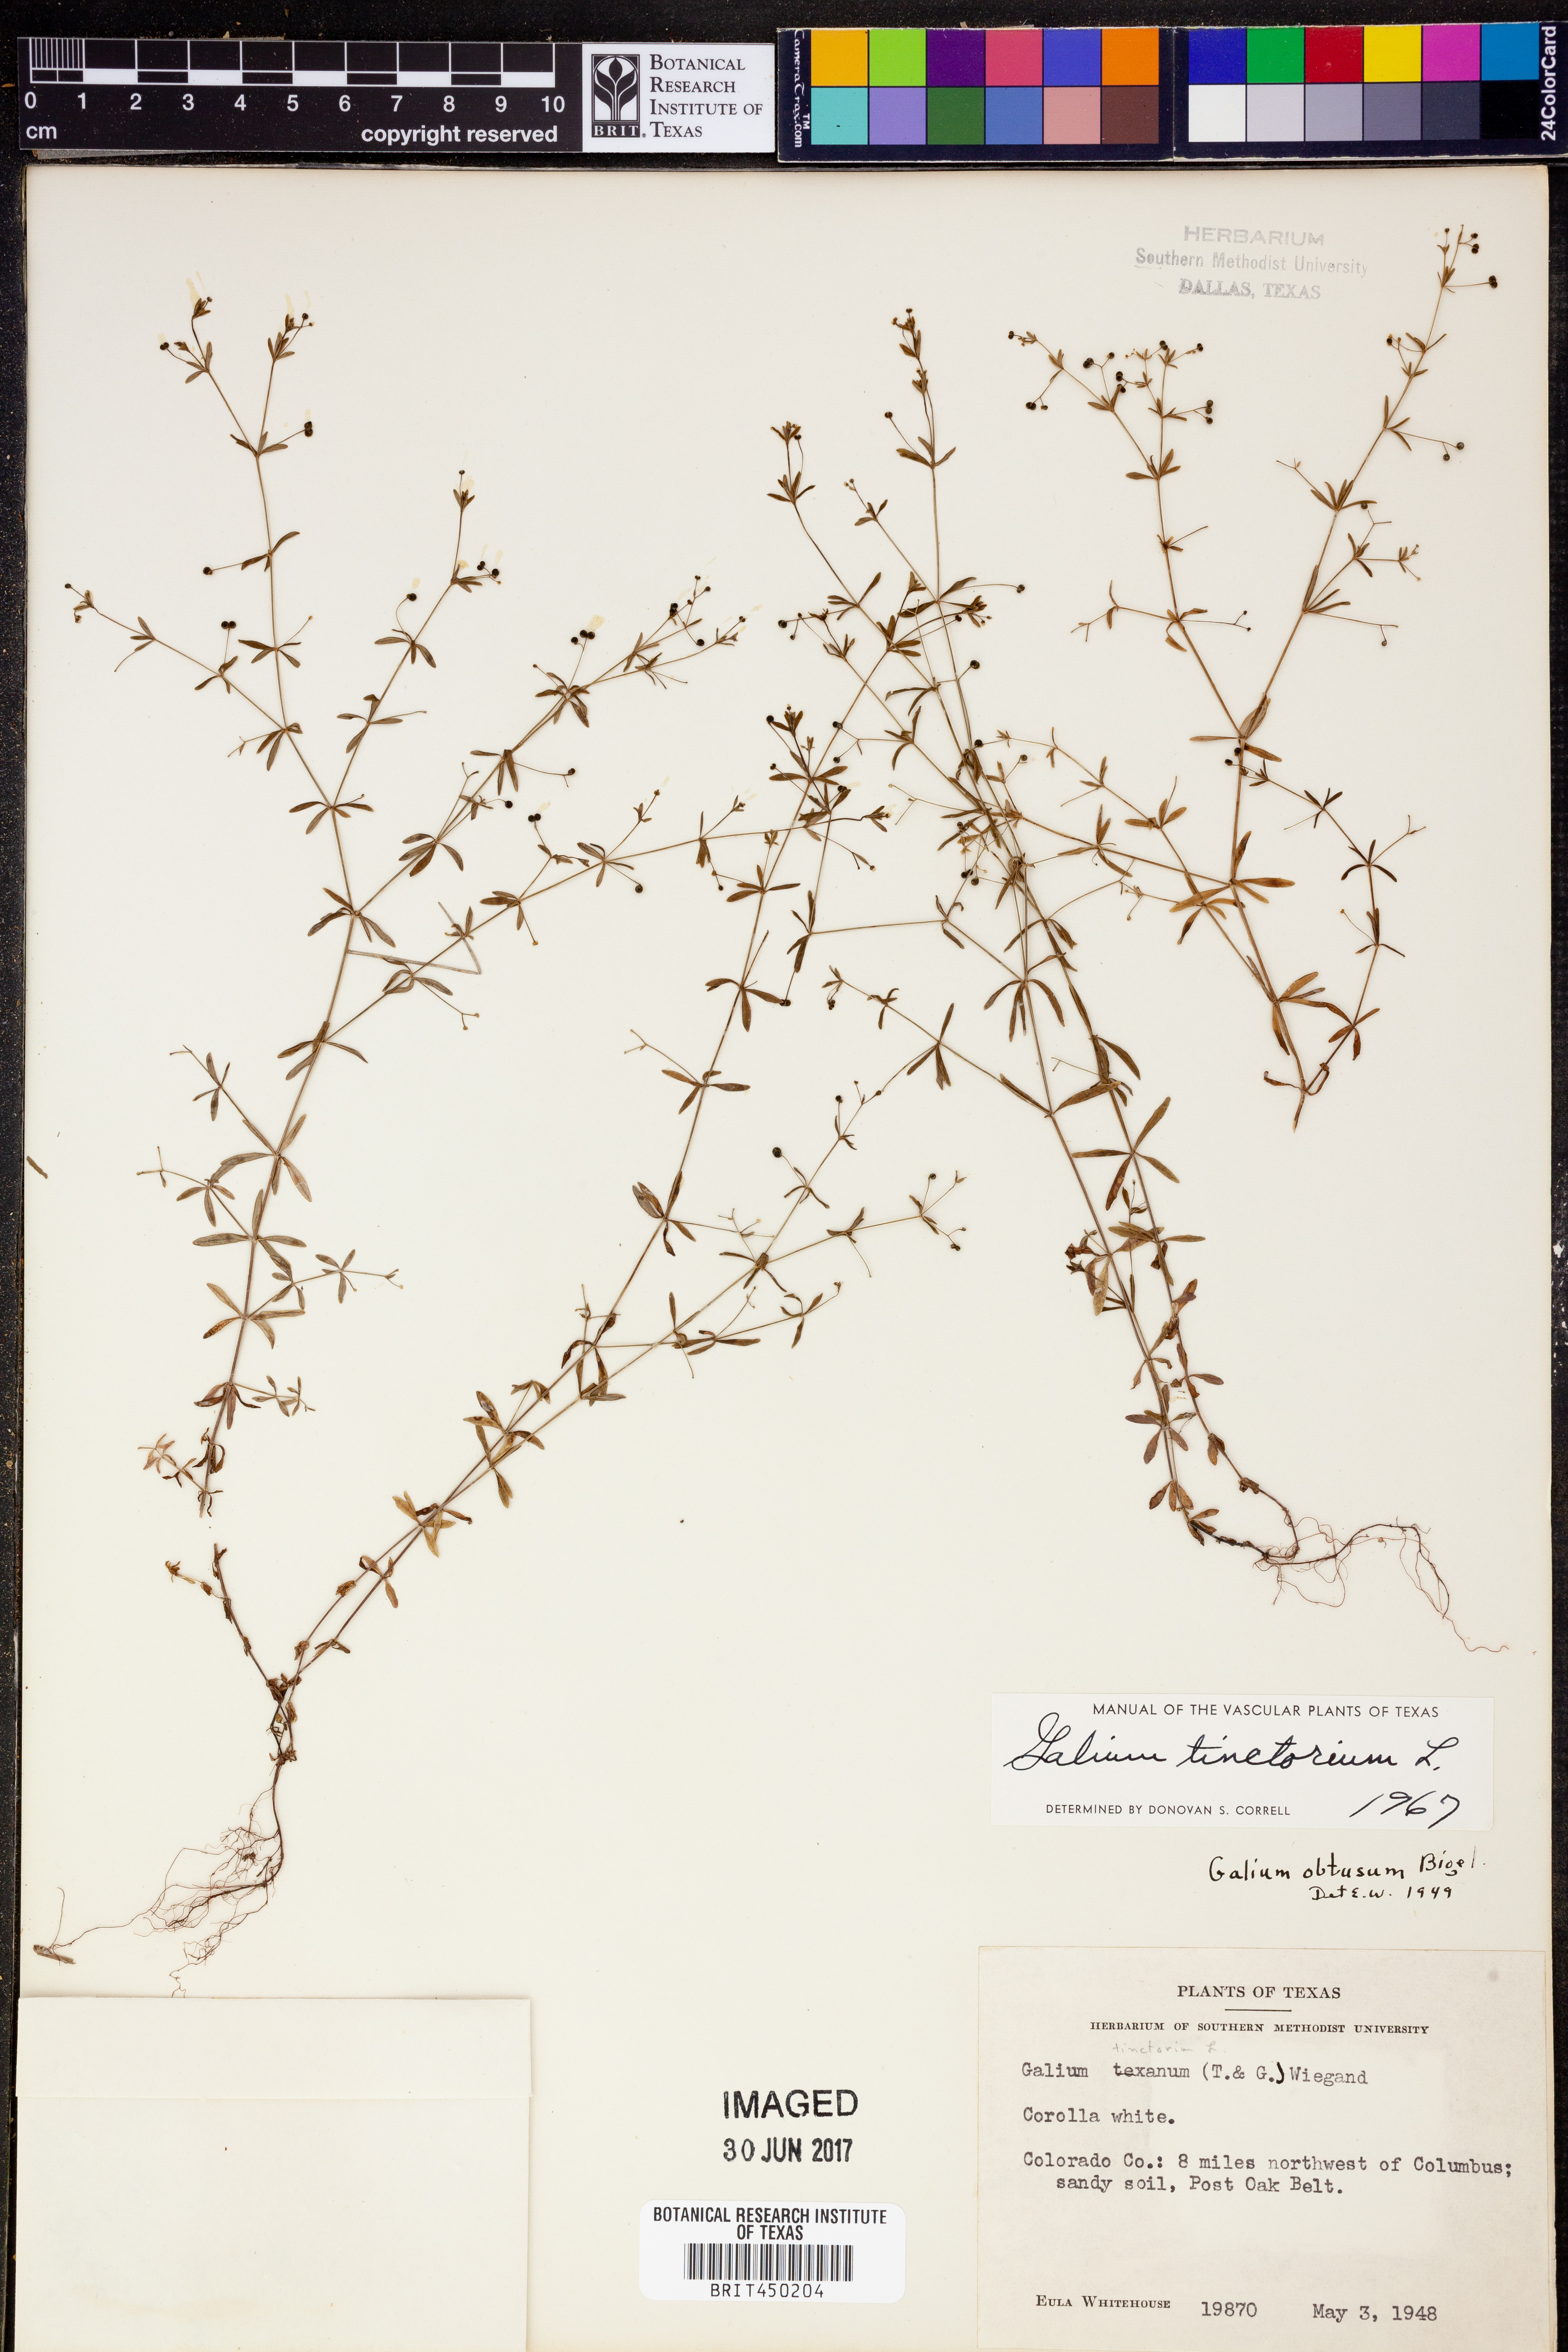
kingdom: Plantae
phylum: Tracheophyta
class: Magnoliopsida
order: Gentianales
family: Rubiaceae
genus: Asperula
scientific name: Asperula tinctoria
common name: Dyer's woodruff
